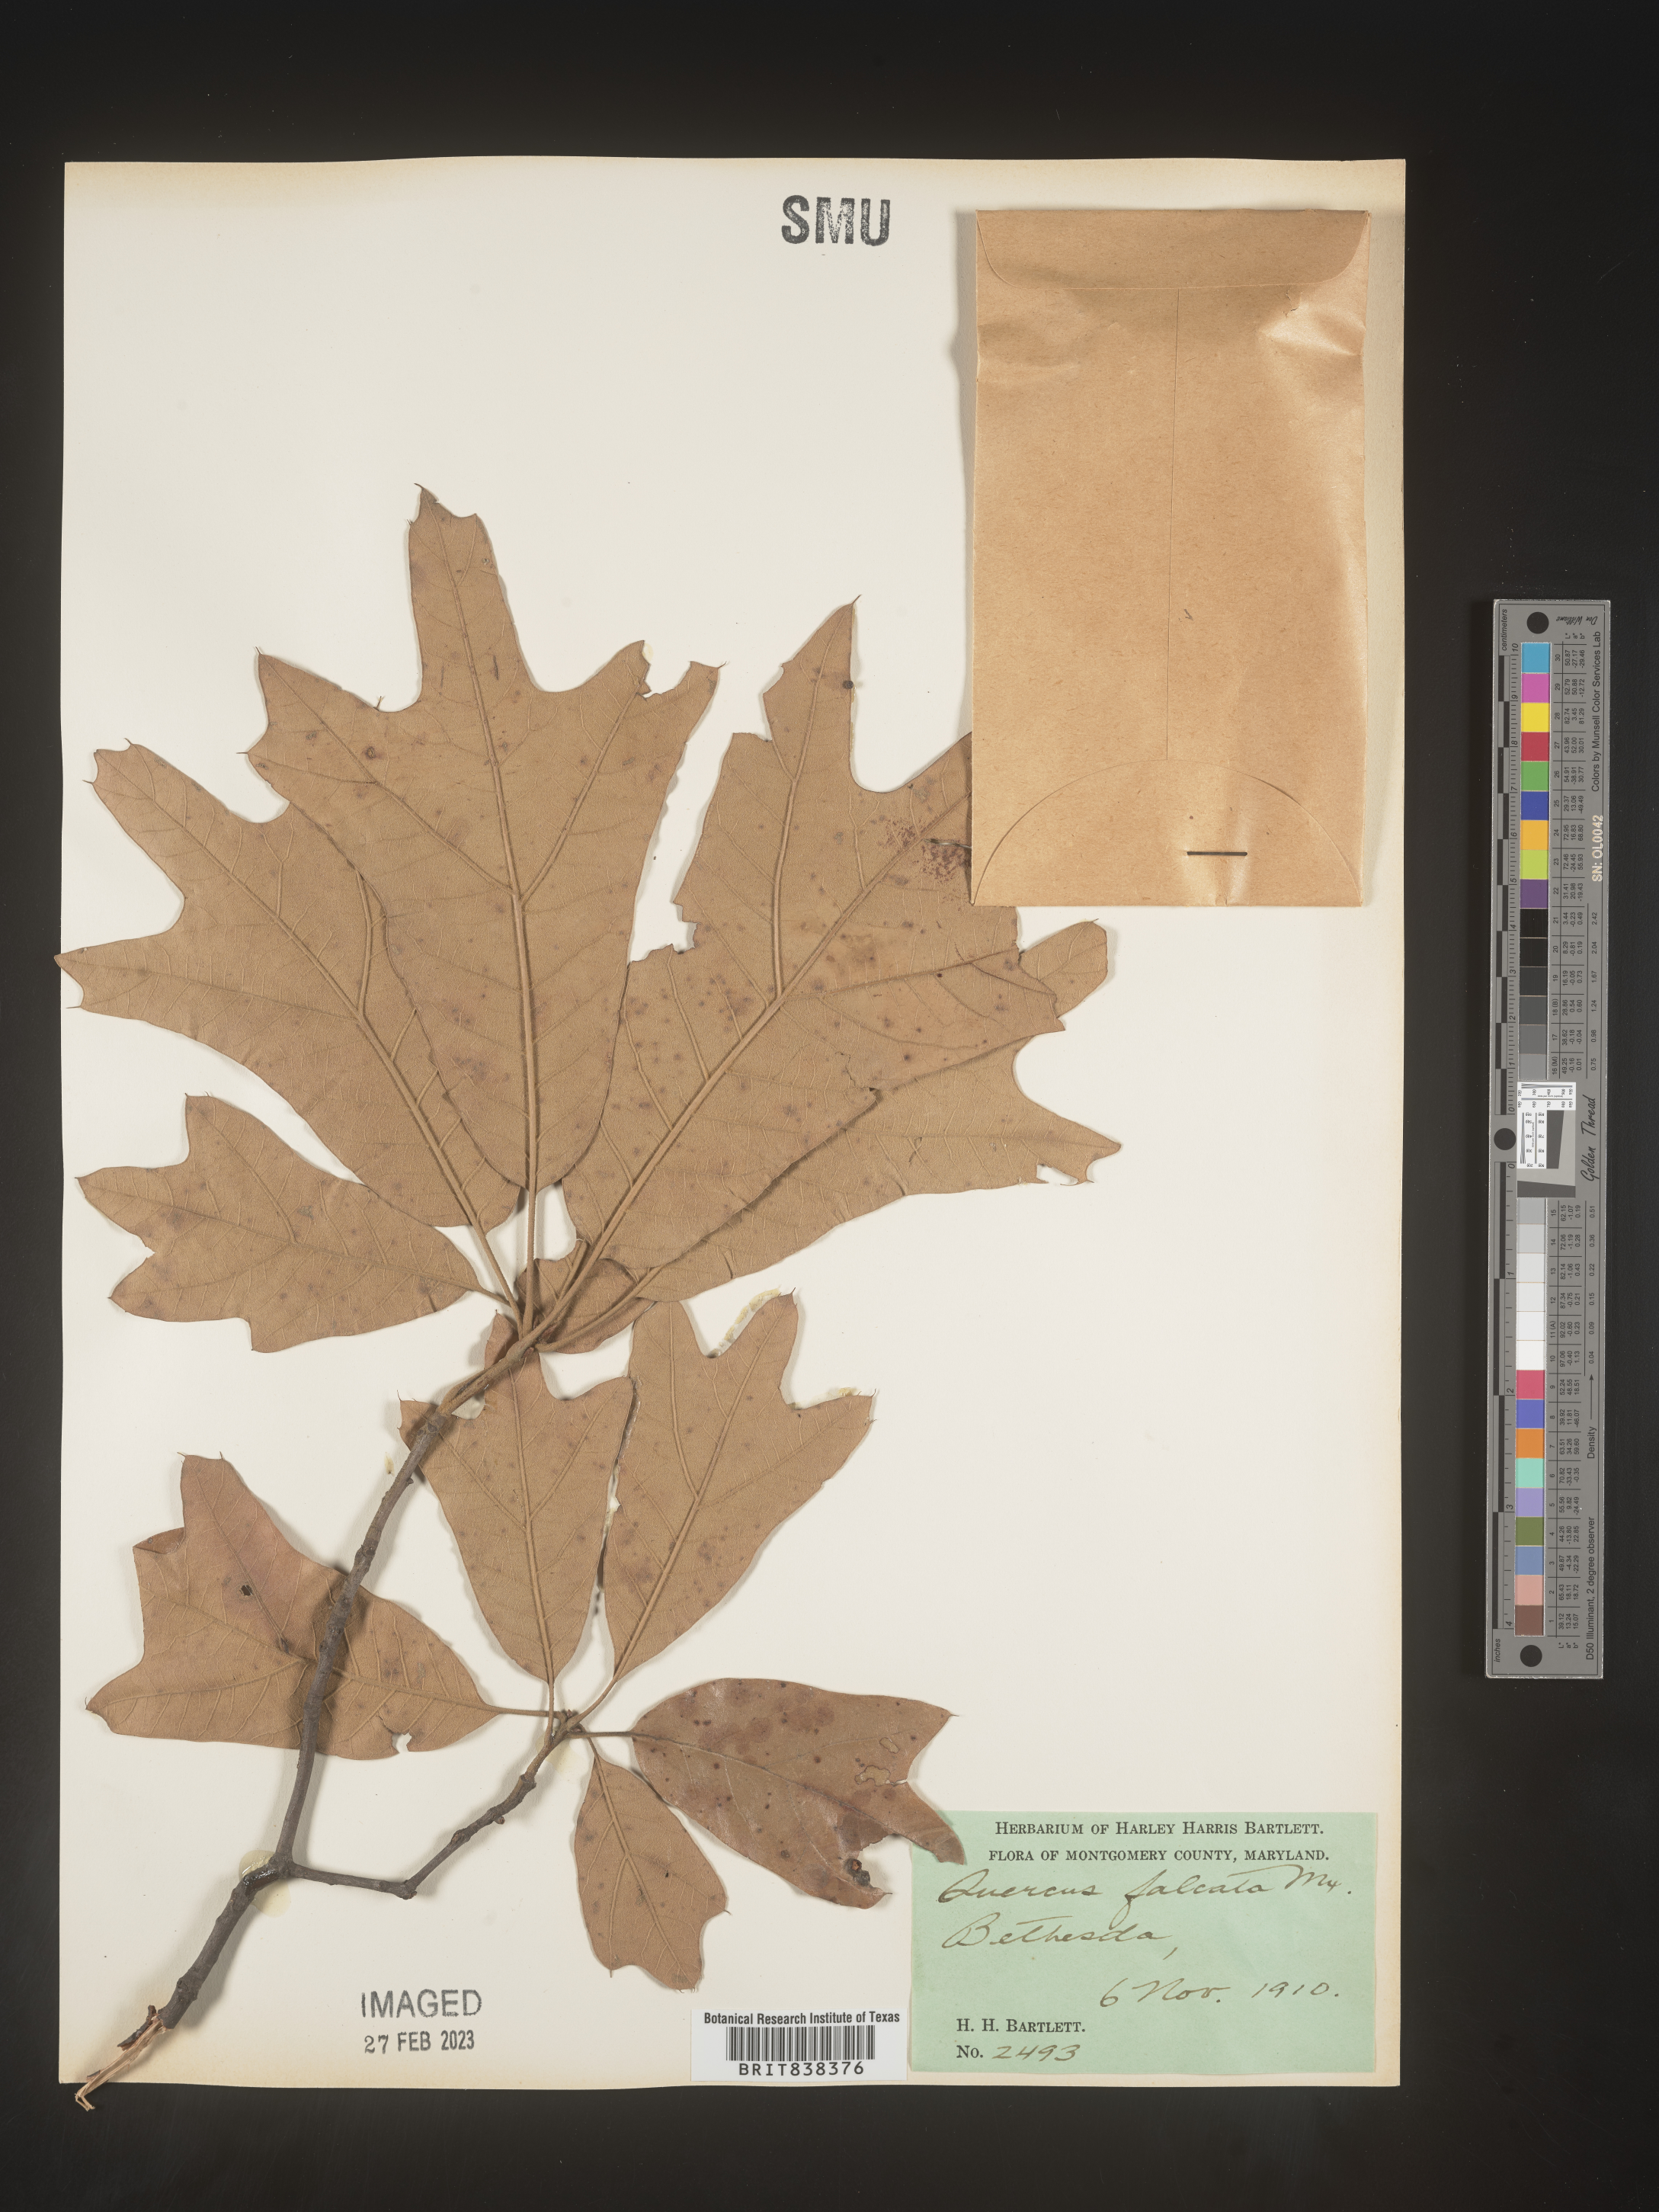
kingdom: Plantae
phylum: Tracheophyta
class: Magnoliopsida
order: Fagales
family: Fagaceae
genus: Quercus
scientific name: Quercus falcata
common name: Southern red oak
